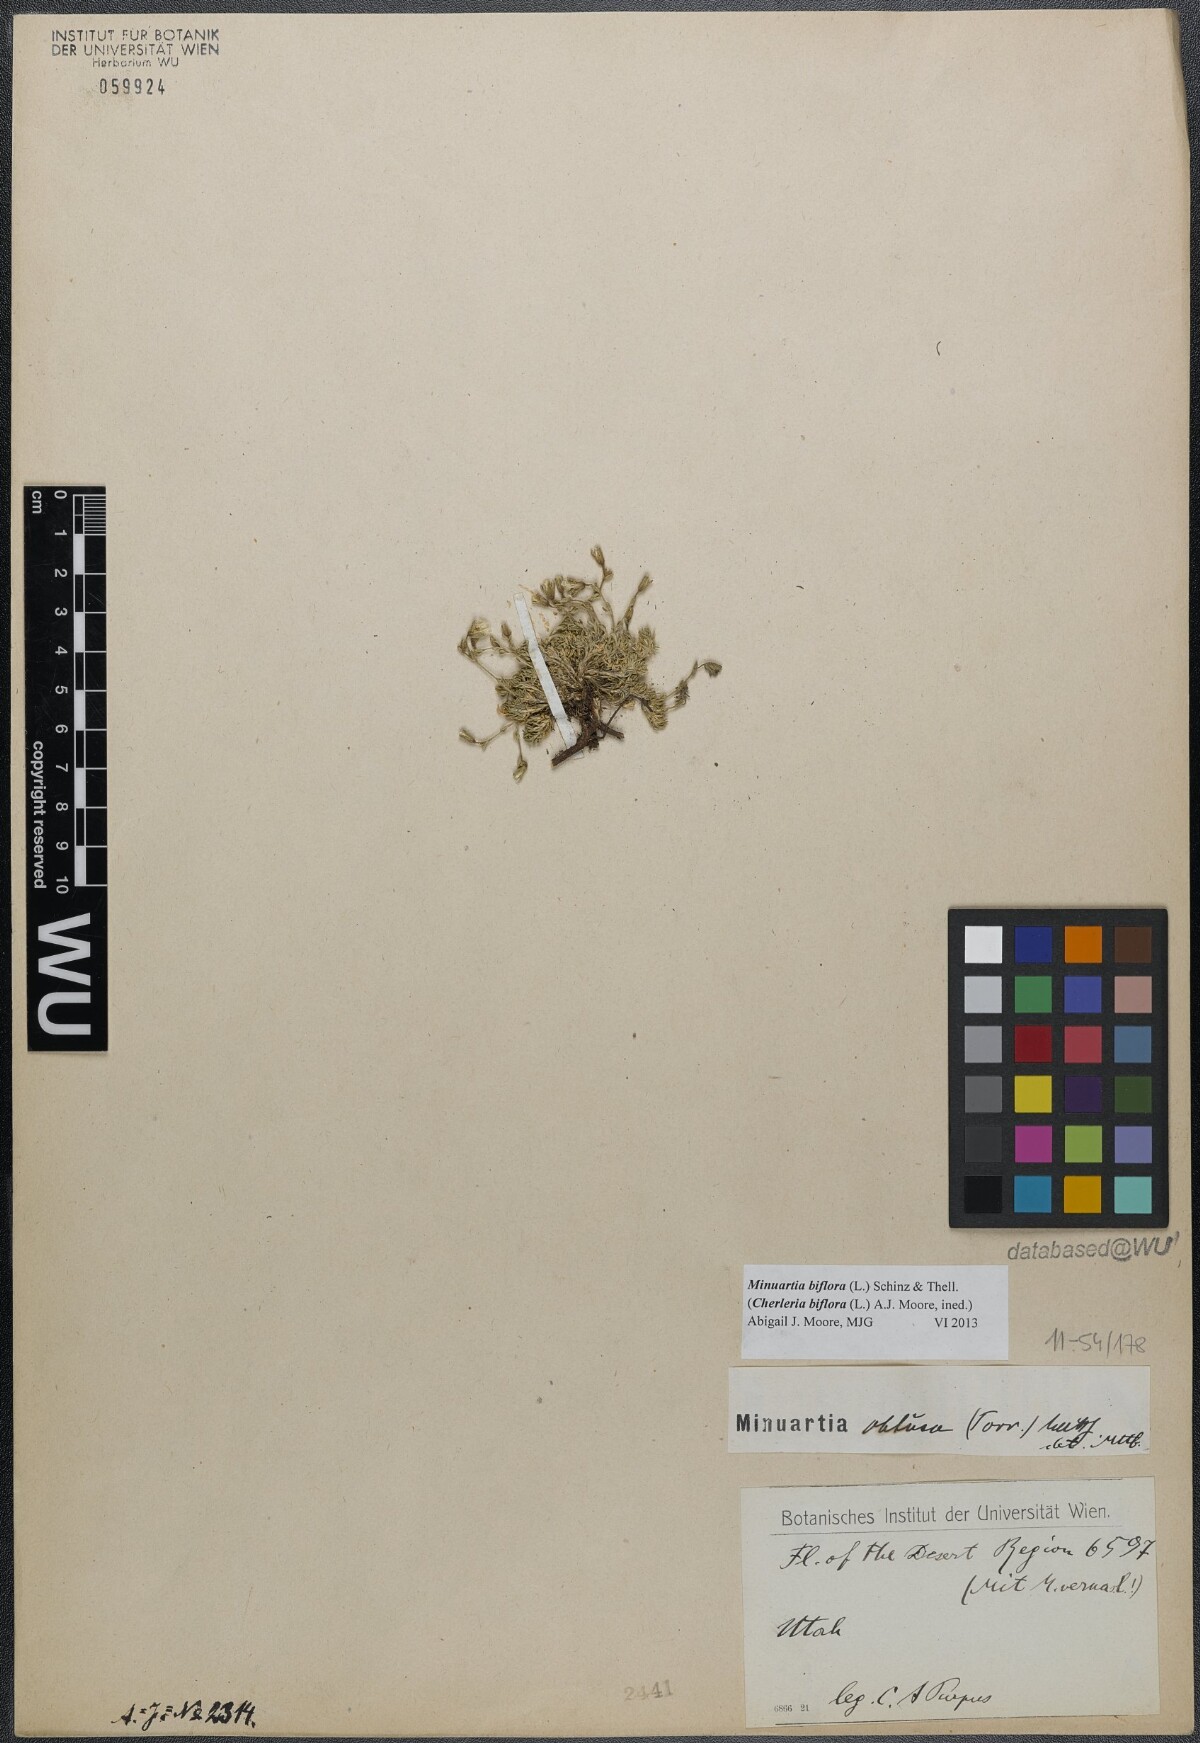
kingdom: Plantae
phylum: Tracheophyta
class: Magnoliopsida
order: Caryophyllales
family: Caryophyllaceae
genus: Cherleria
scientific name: Cherleria biflora
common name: Mountain sandwort
